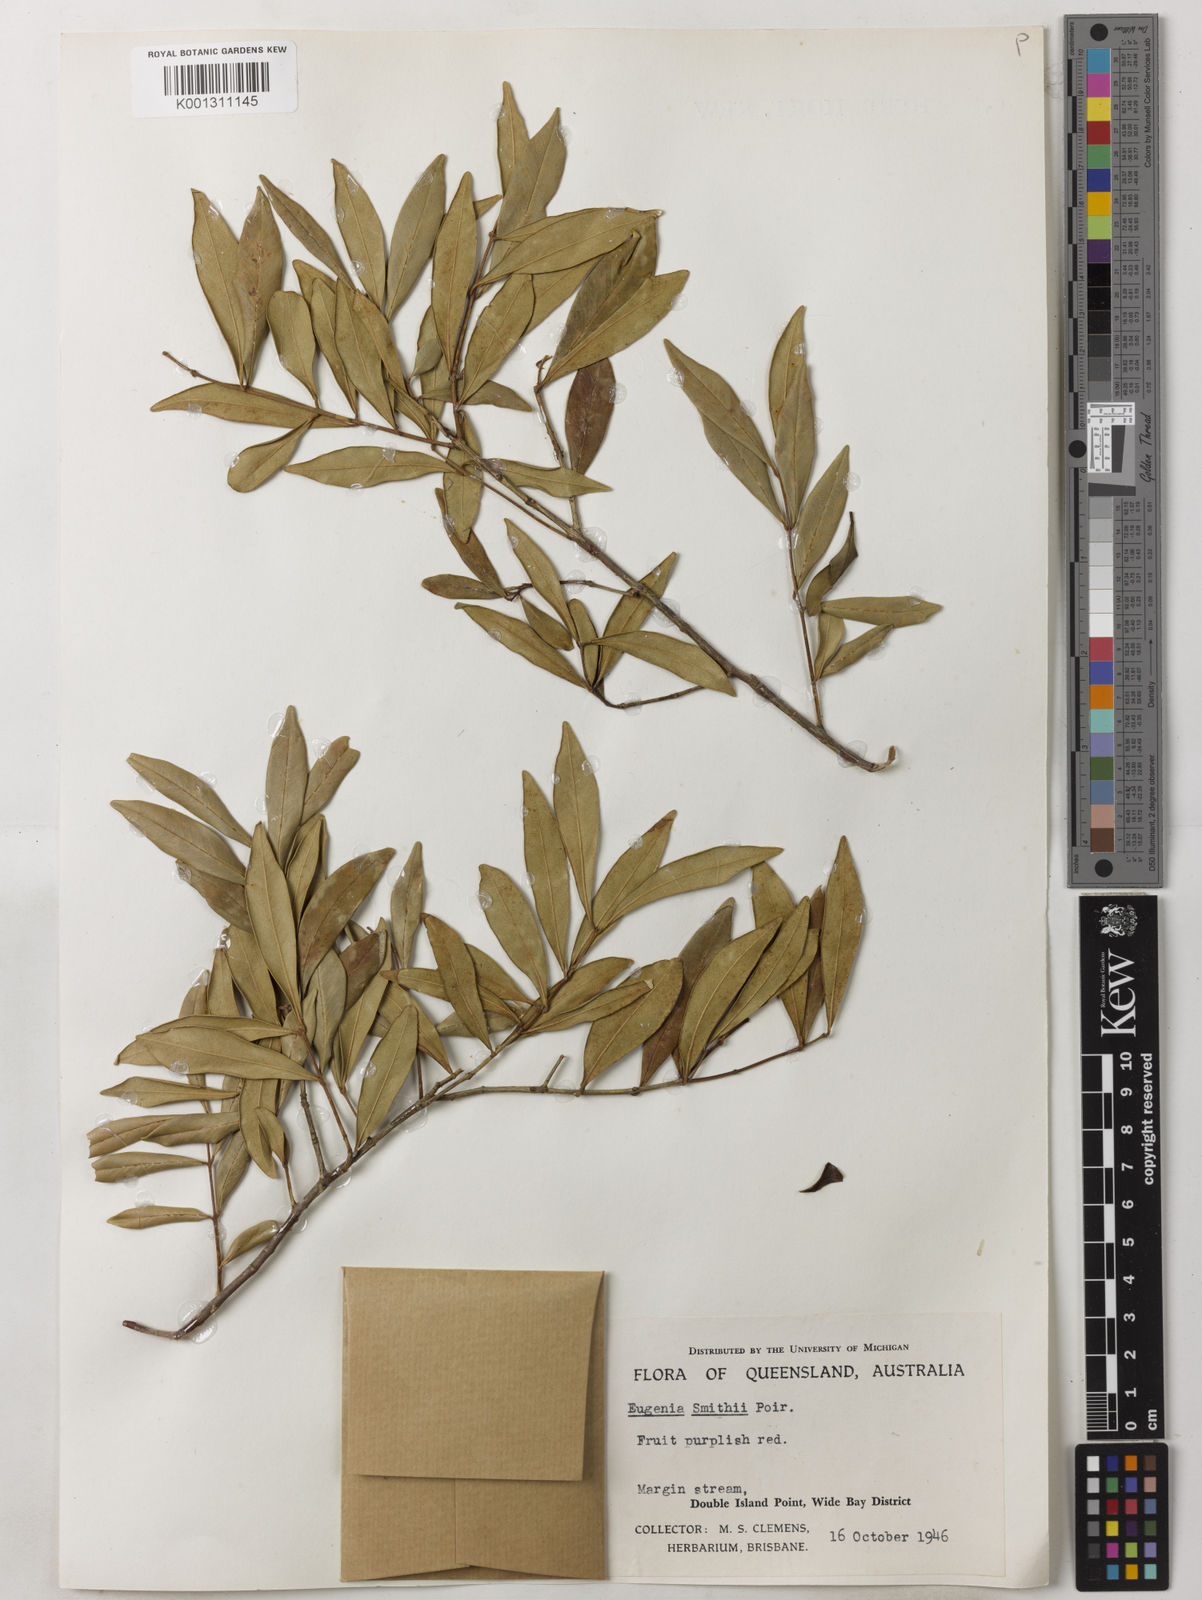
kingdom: Plantae
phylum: Tracheophyta
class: Magnoliopsida
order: Myrtales
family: Myrtaceae
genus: Syzygium
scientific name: Syzygium smithii
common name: Lilly-pilly
